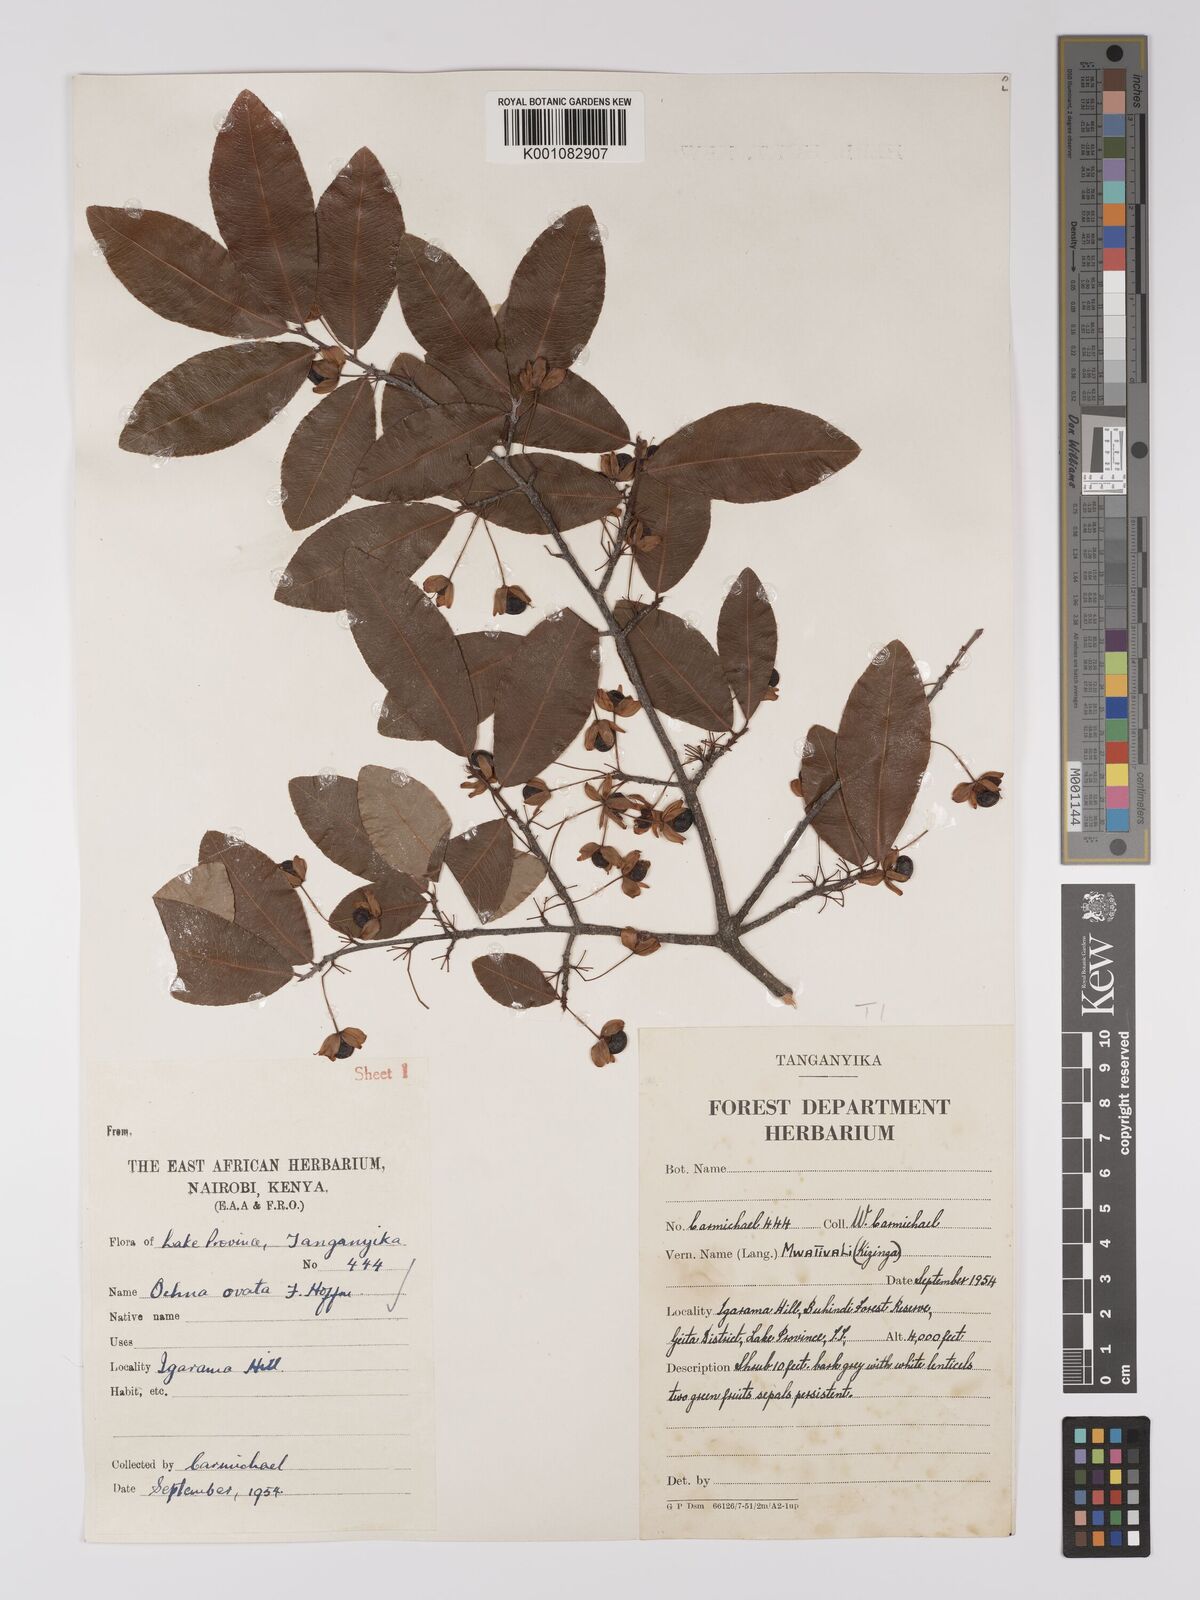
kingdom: Plantae
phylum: Tracheophyta
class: Magnoliopsida
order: Malpighiales
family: Ochnaceae
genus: Ochna
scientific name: Ochna ovata
